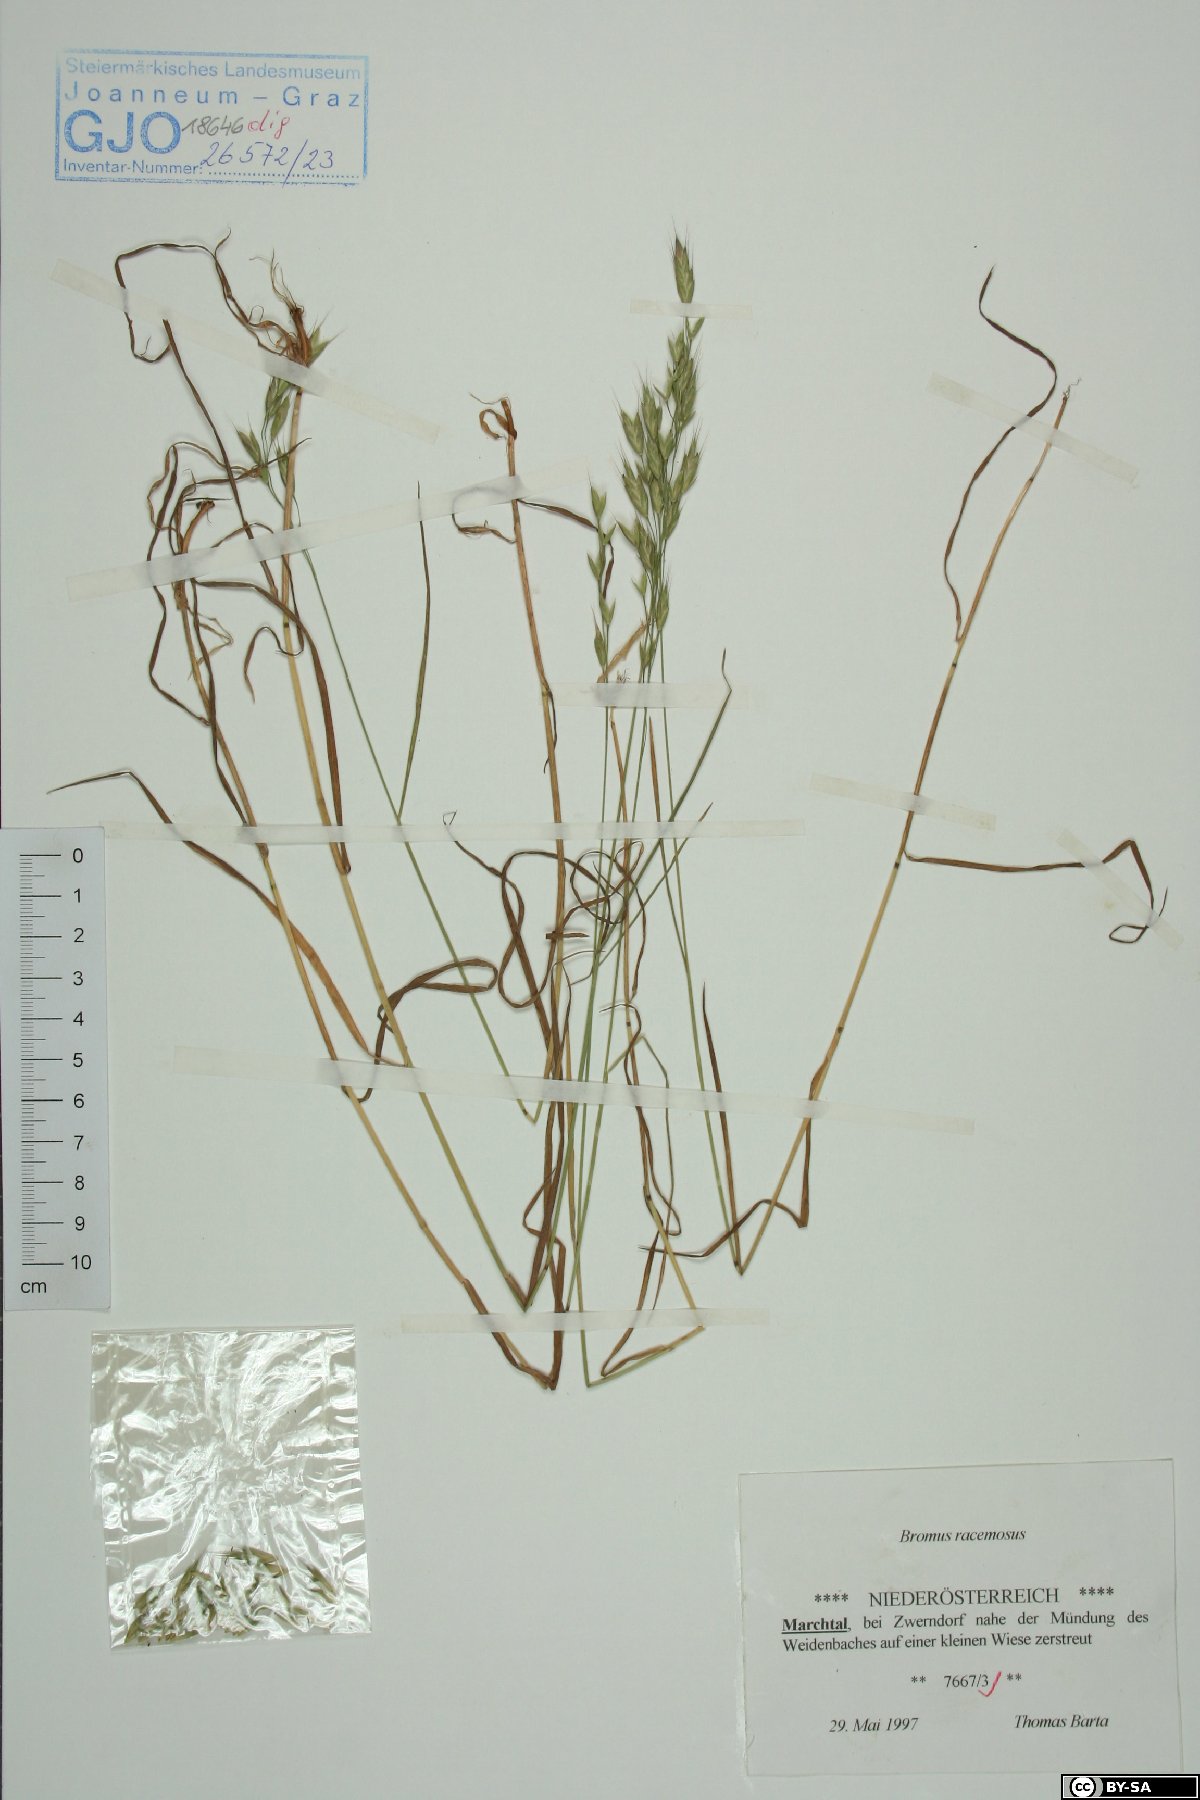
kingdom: Plantae
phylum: Tracheophyta
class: Liliopsida
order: Poales
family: Poaceae
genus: Bromus
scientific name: Bromus racemosus
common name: Bald brome
